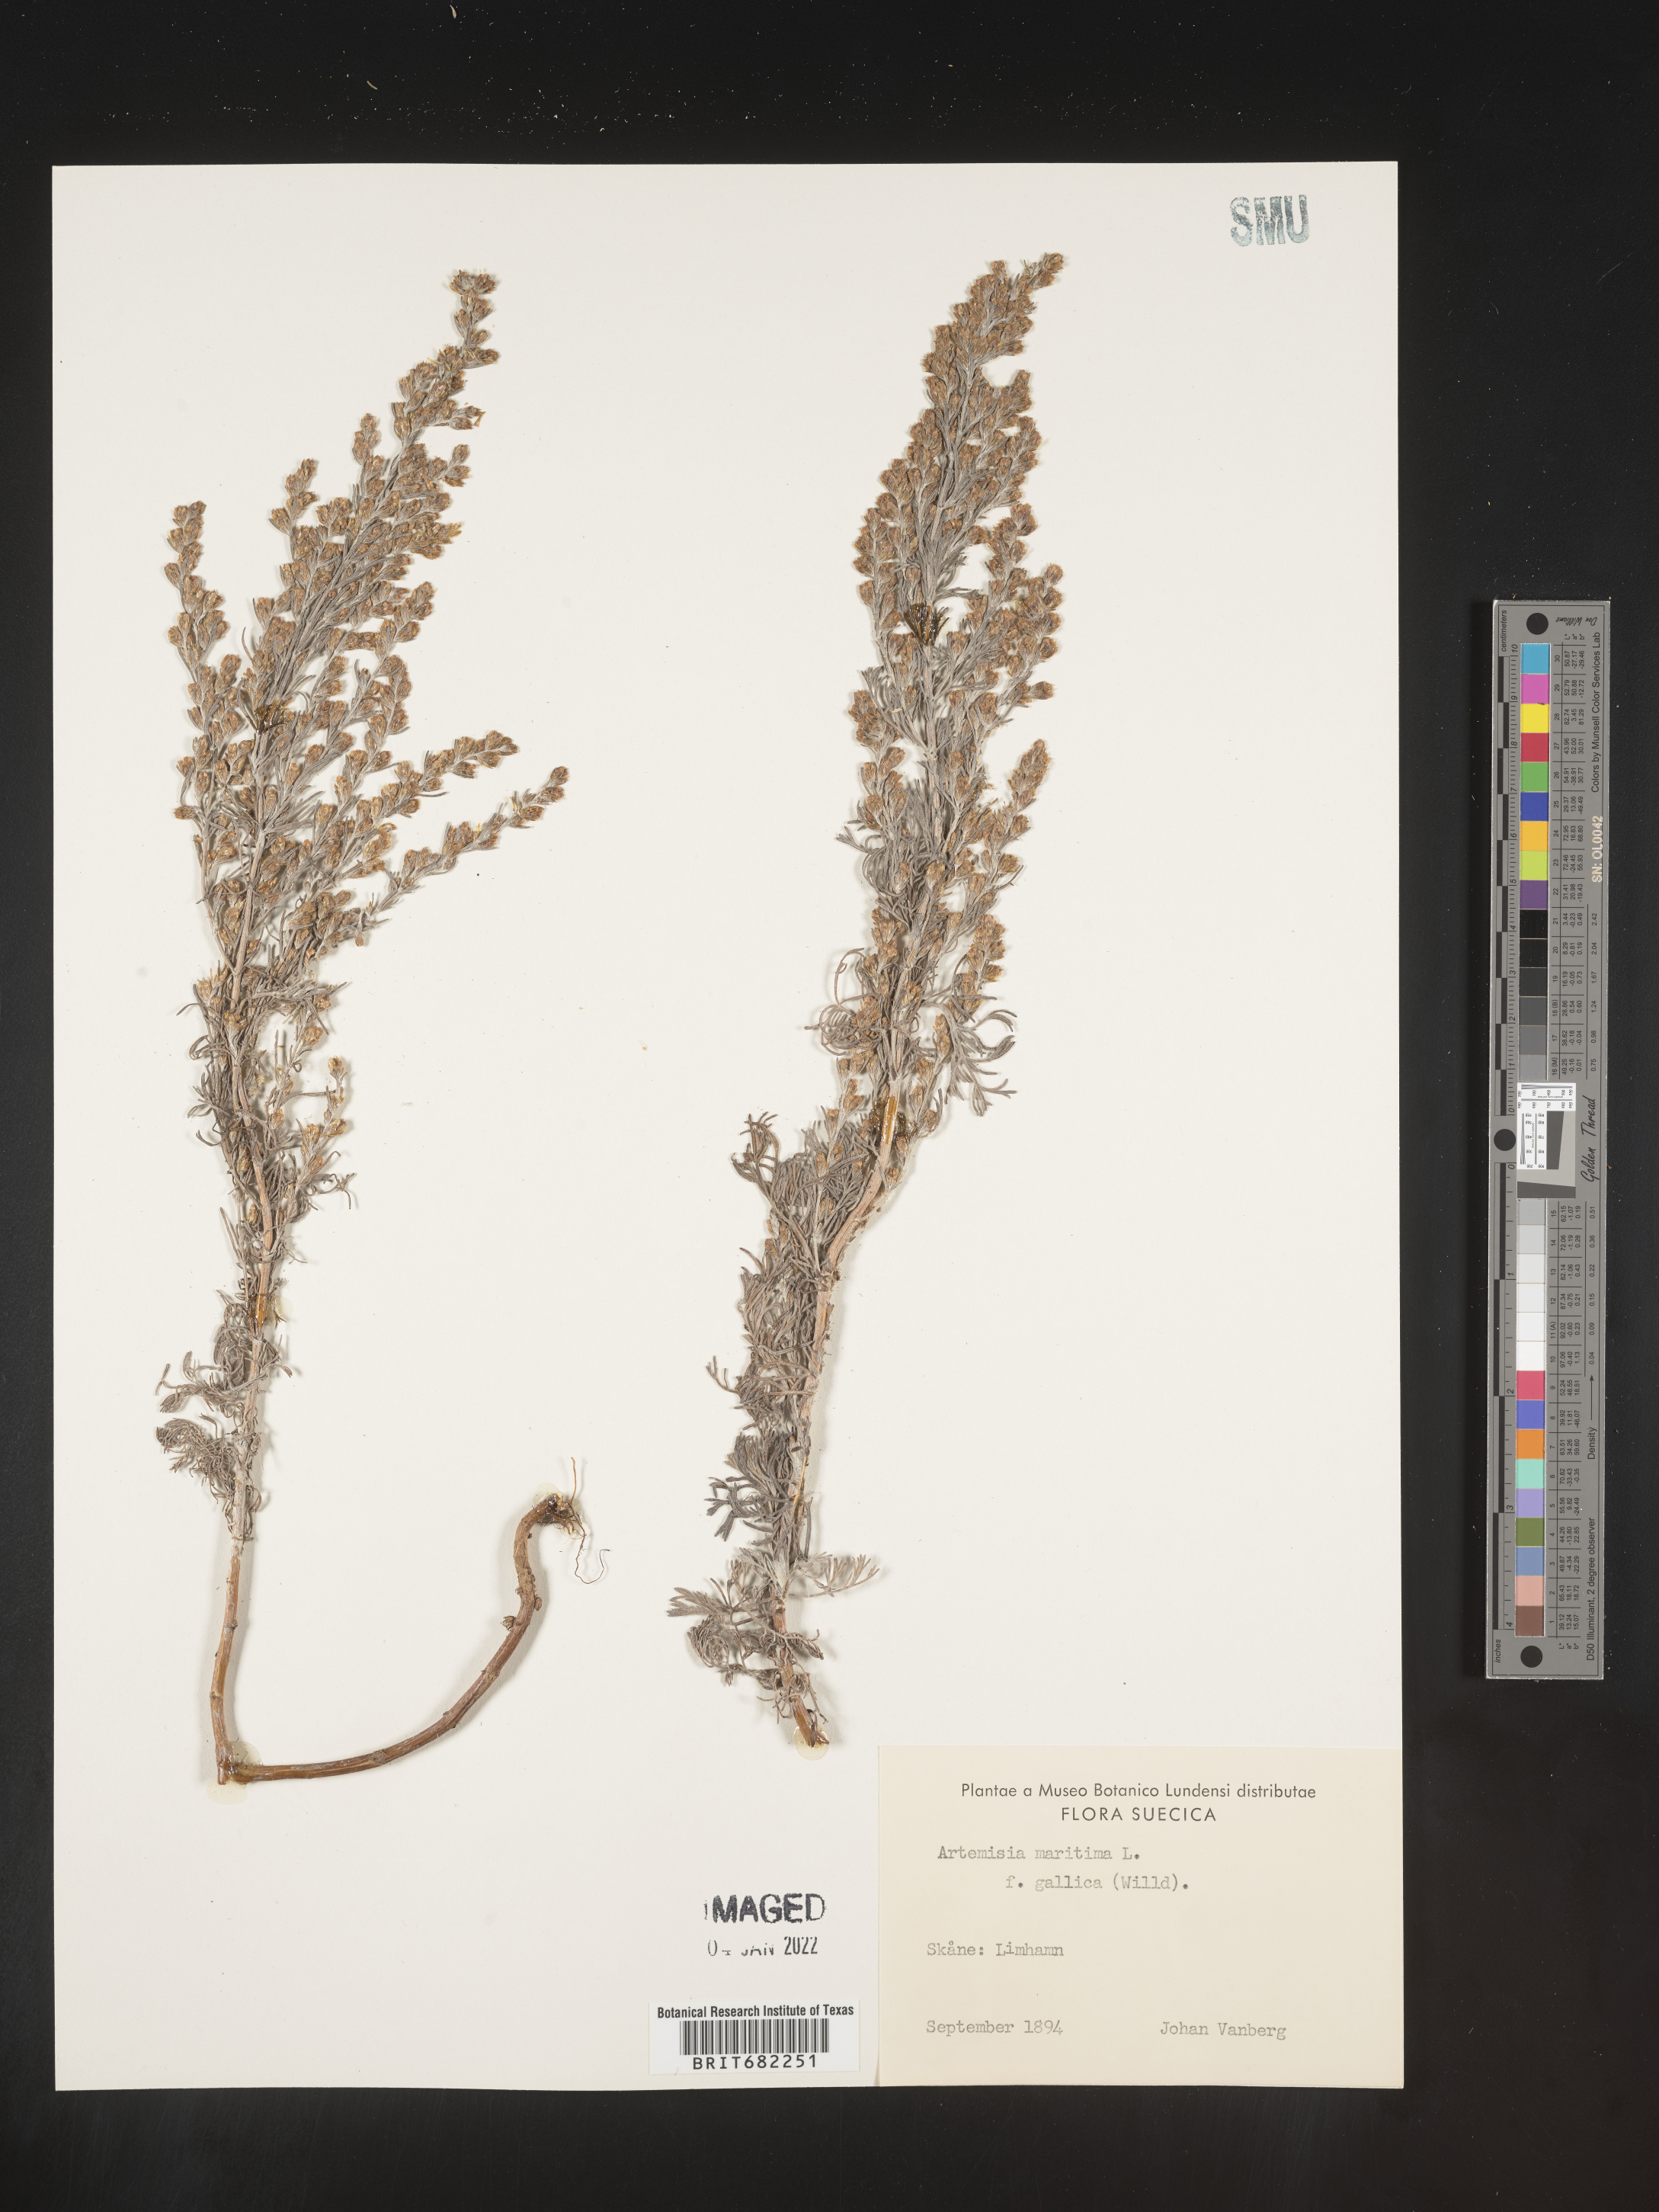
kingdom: Plantae
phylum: Tracheophyta
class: Magnoliopsida
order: Asterales
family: Asteraceae
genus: Artemisia
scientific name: Artemisia
